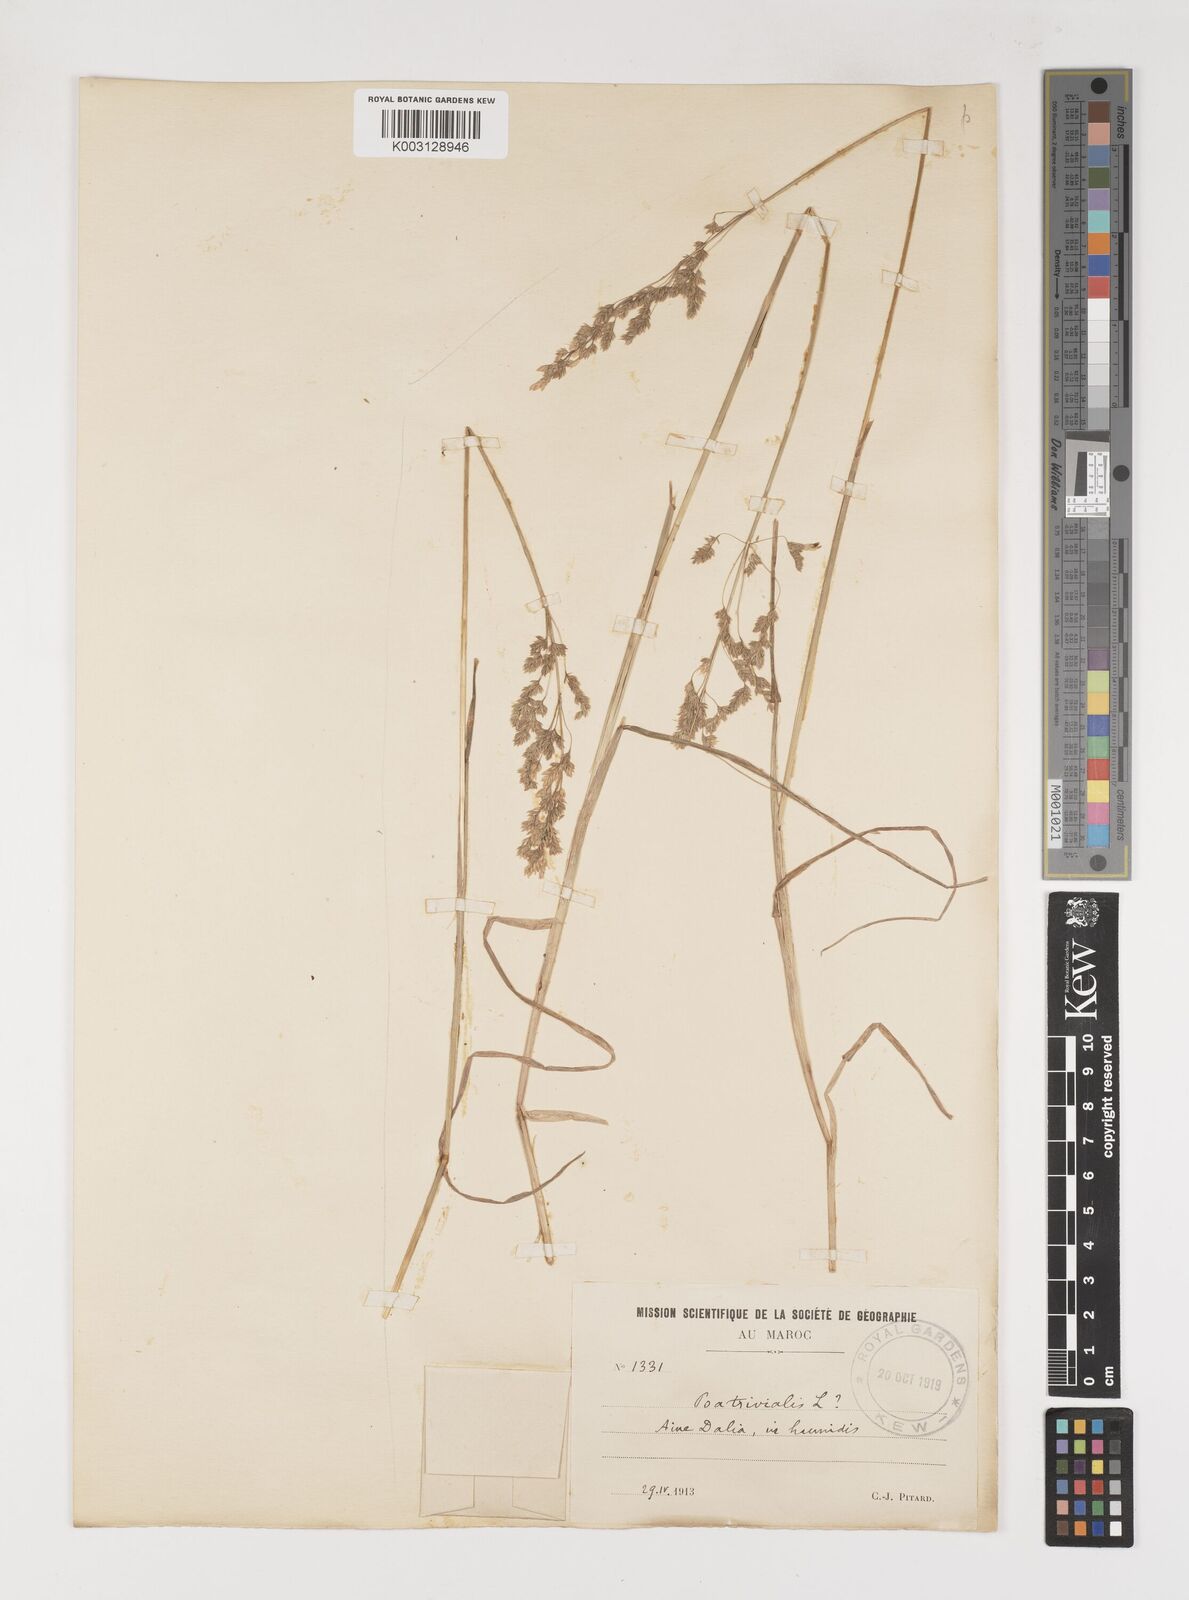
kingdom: Plantae
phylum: Tracheophyta
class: Liliopsida
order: Poales
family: Poaceae
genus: Poa
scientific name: Poa trivialis
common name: Rough bluegrass
